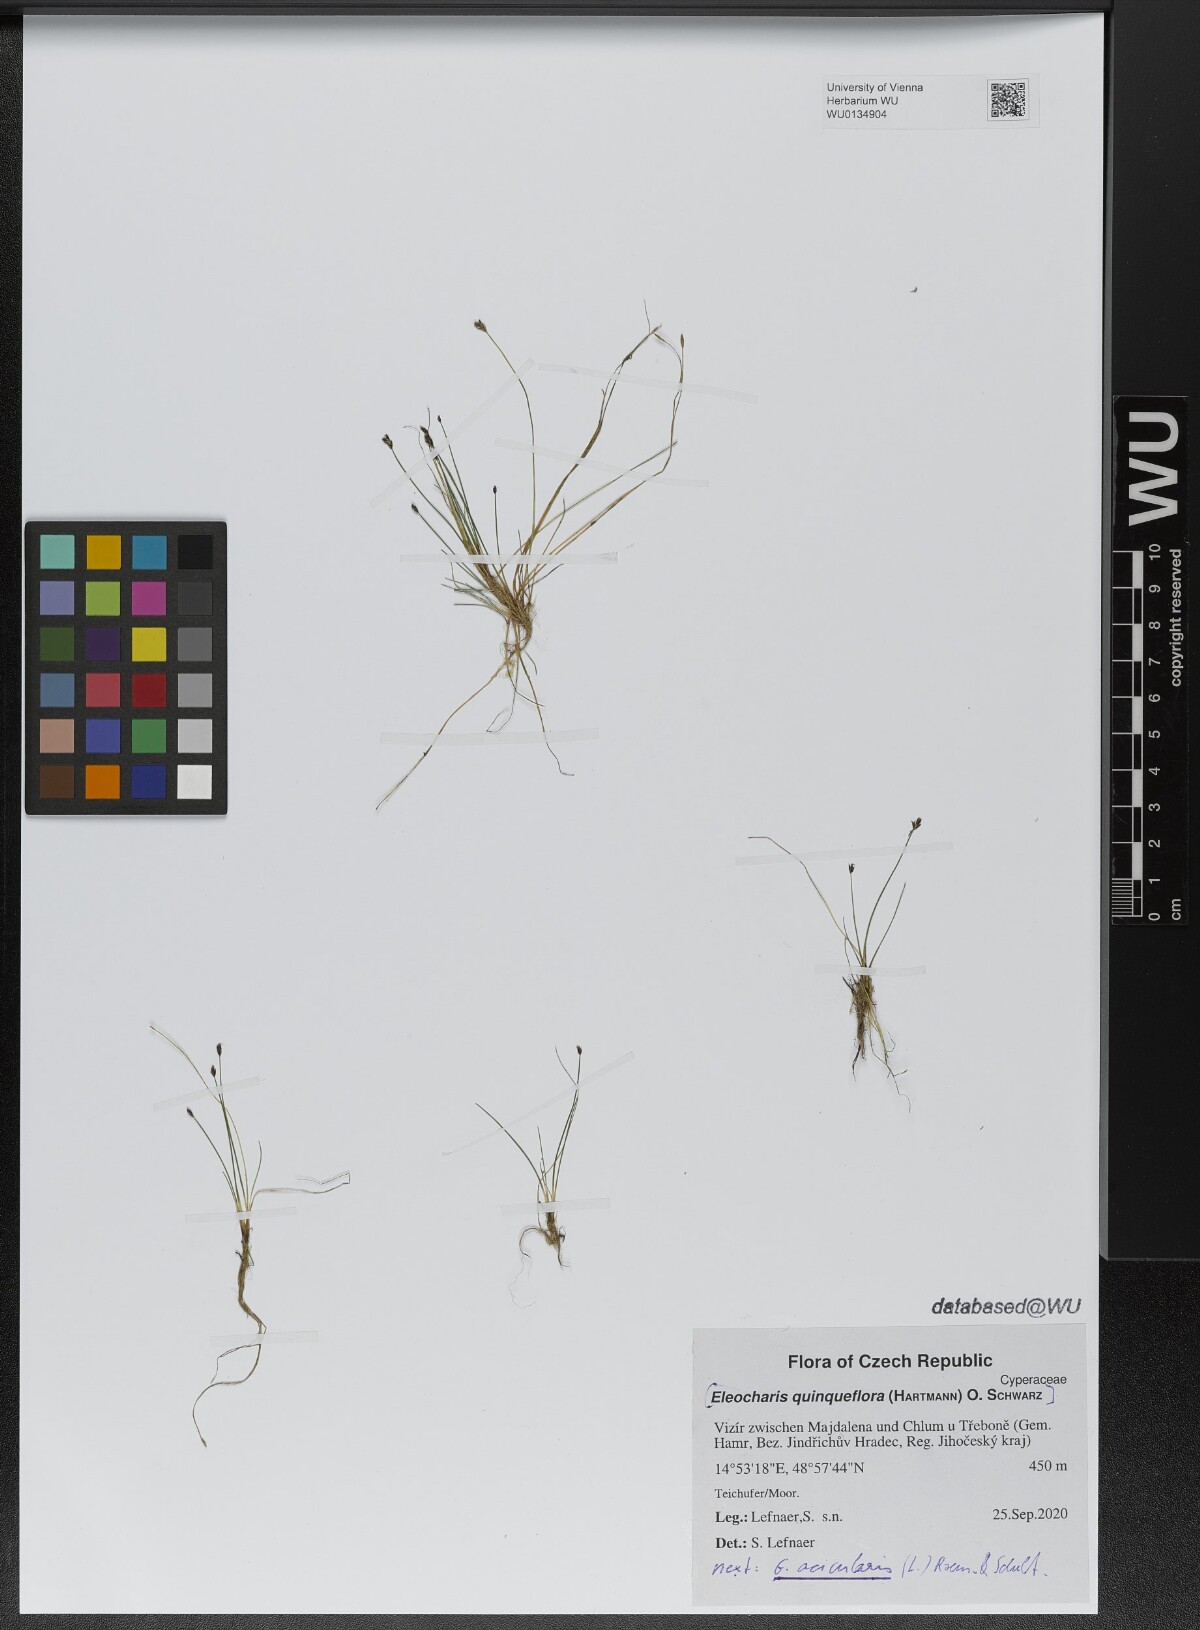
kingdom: Plantae
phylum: Tracheophyta
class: Liliopsida
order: Poales
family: Cyperaceae
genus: Eleocharis
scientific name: Eleocharis acicularis
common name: Needle spike-rush
